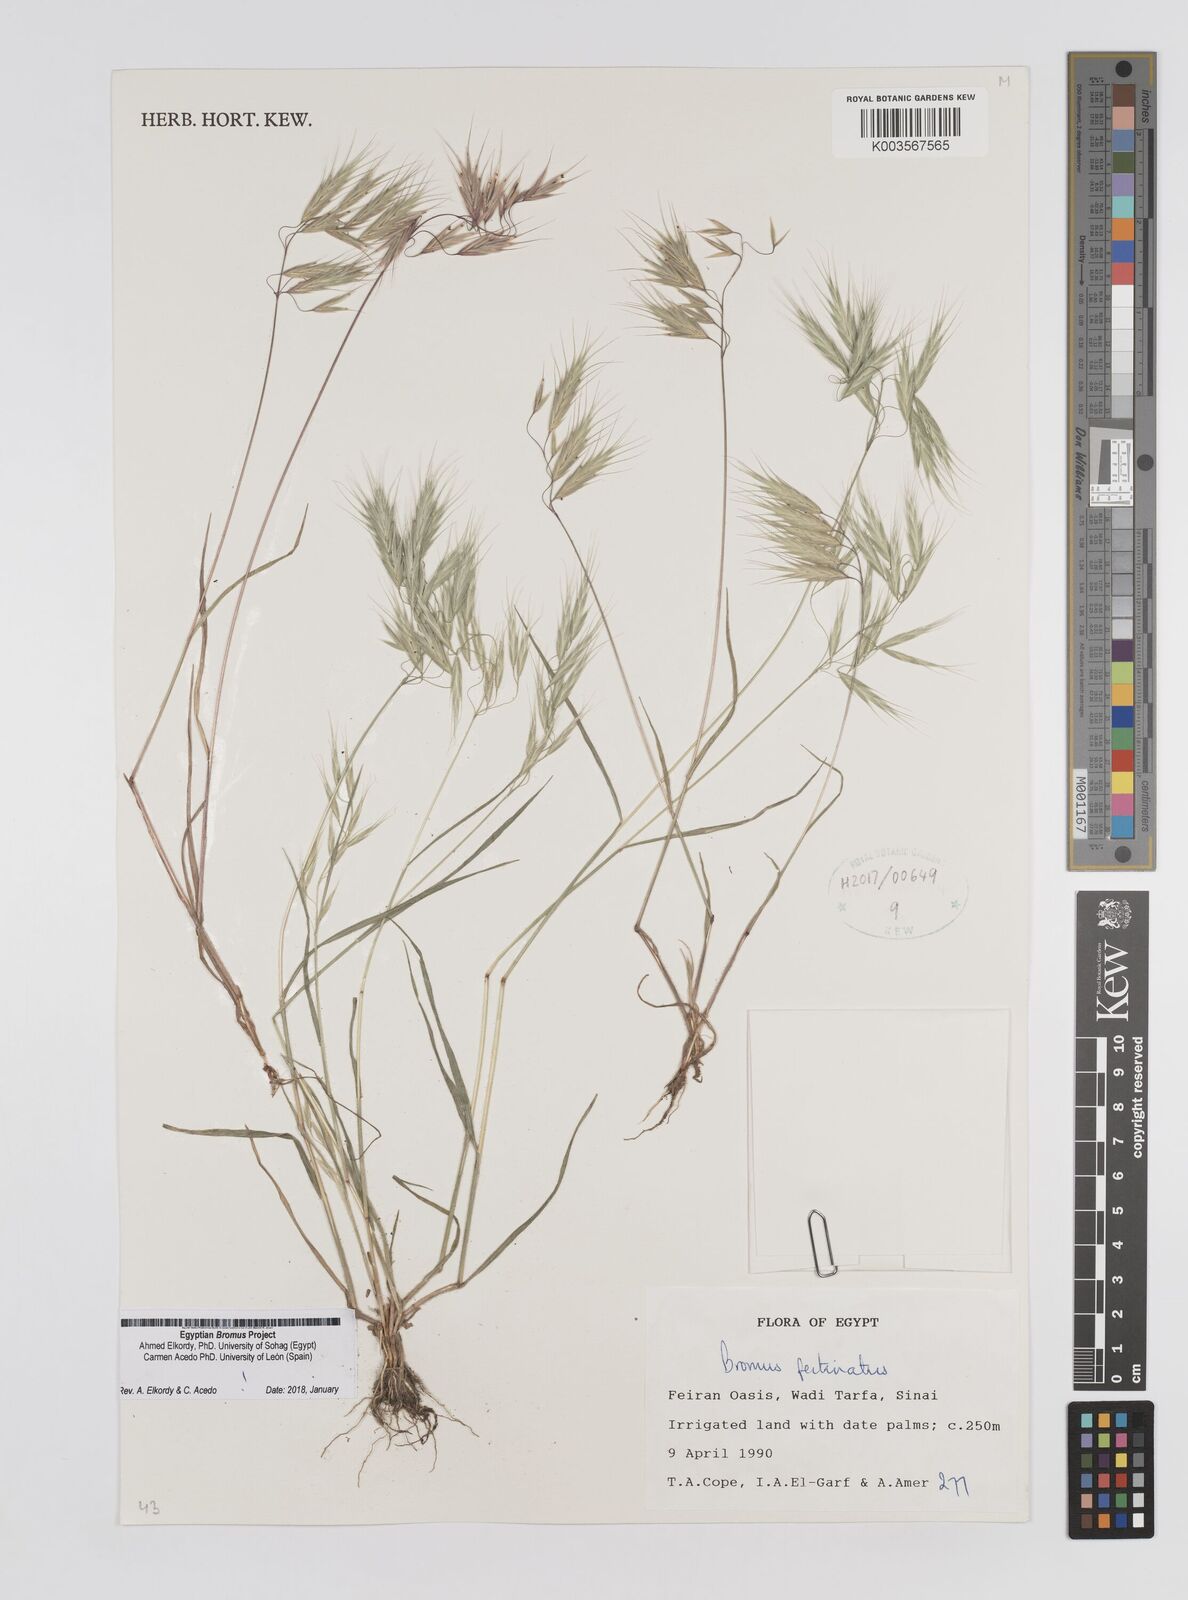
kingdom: Plantae
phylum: Tracheophyta
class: Liliopsida
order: Poales
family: Poaceae
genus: Bromus
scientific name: Bromus pectinatus
